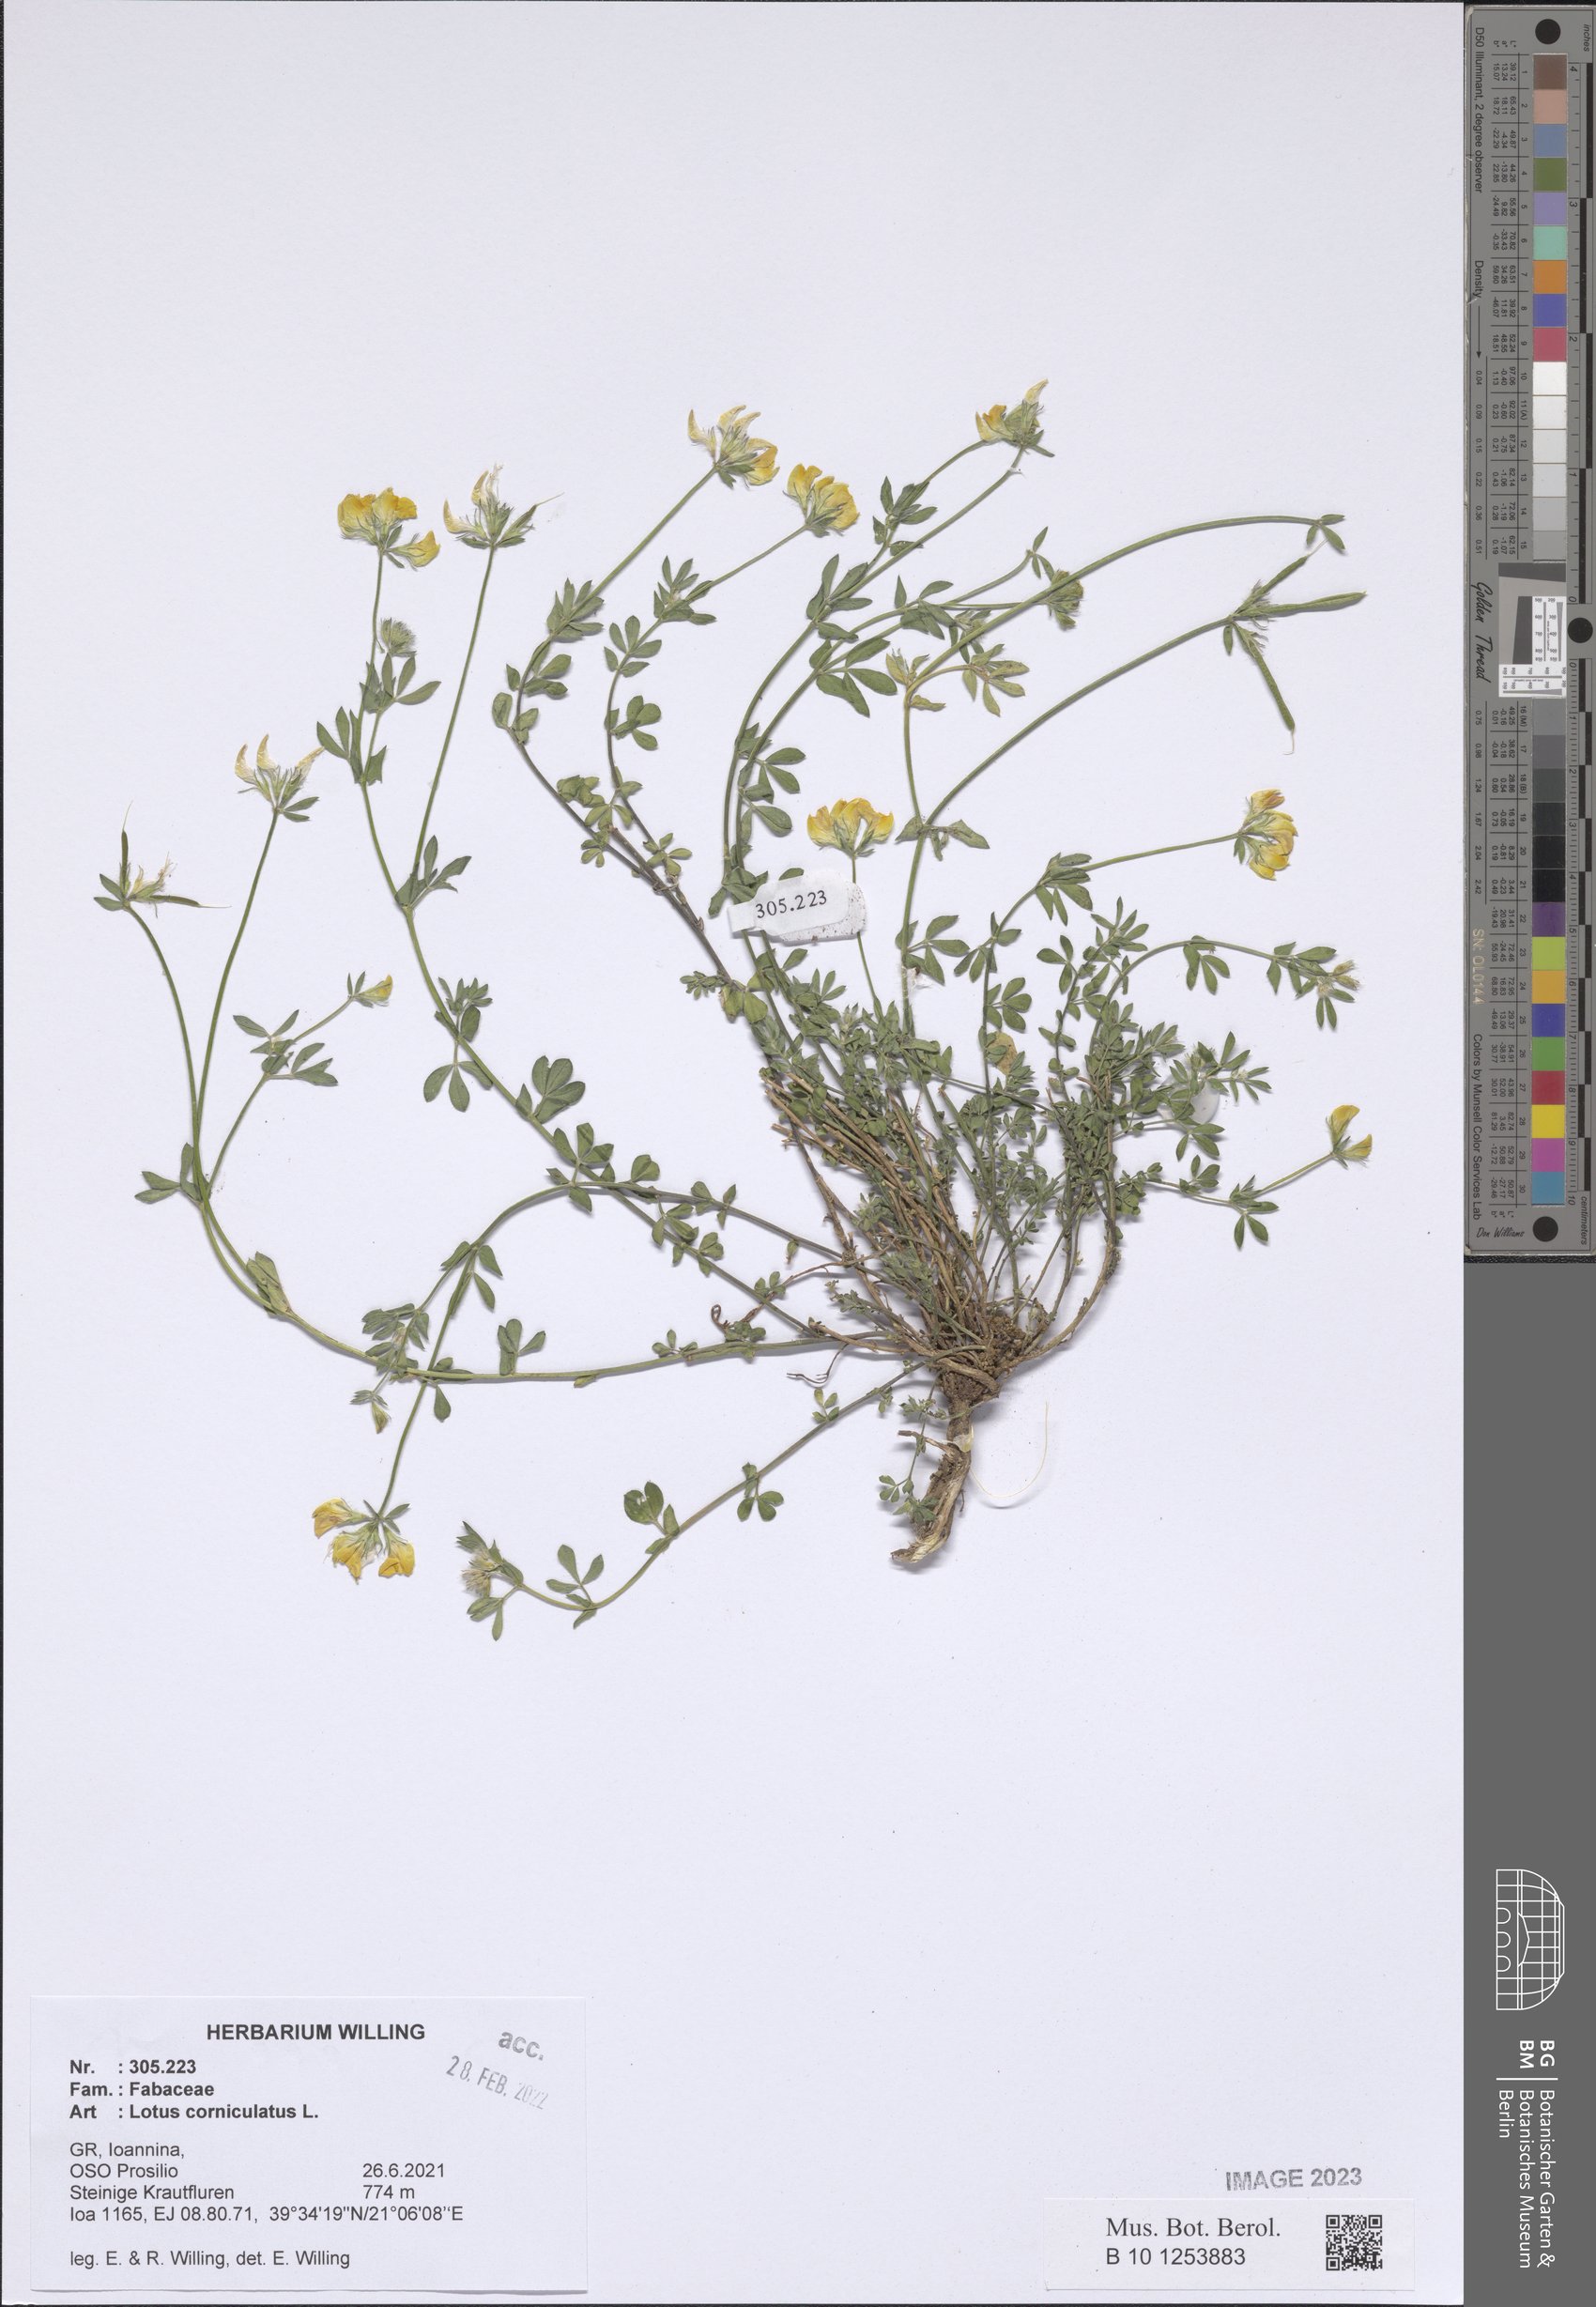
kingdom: Plantae
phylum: Tracheophyta
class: Magnoliopsida
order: Fabales
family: Fabaceae
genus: Lotus
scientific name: Lotus corniculatus
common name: Common bird's-foot-trefoil
